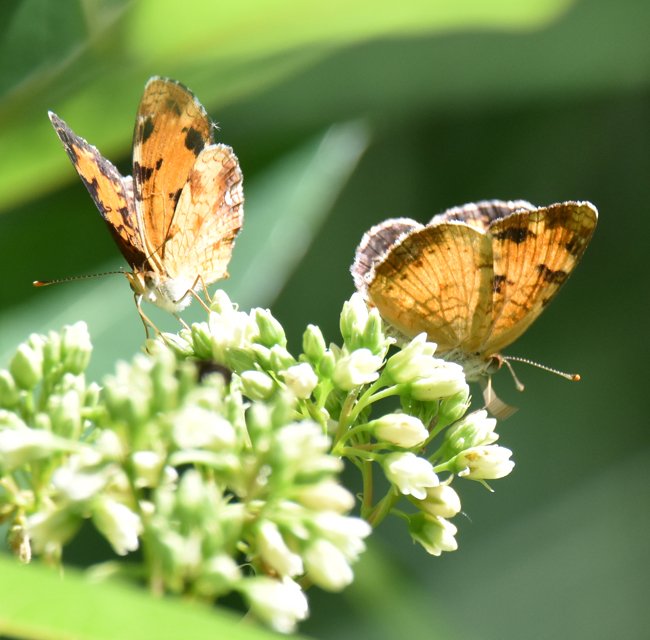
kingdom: Animalia
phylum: Arthropoda
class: Insecta
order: Lepidoptera
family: Nymphalidae
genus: Phyciodes
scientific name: Phyciodes tharos
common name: Northern Crescent
